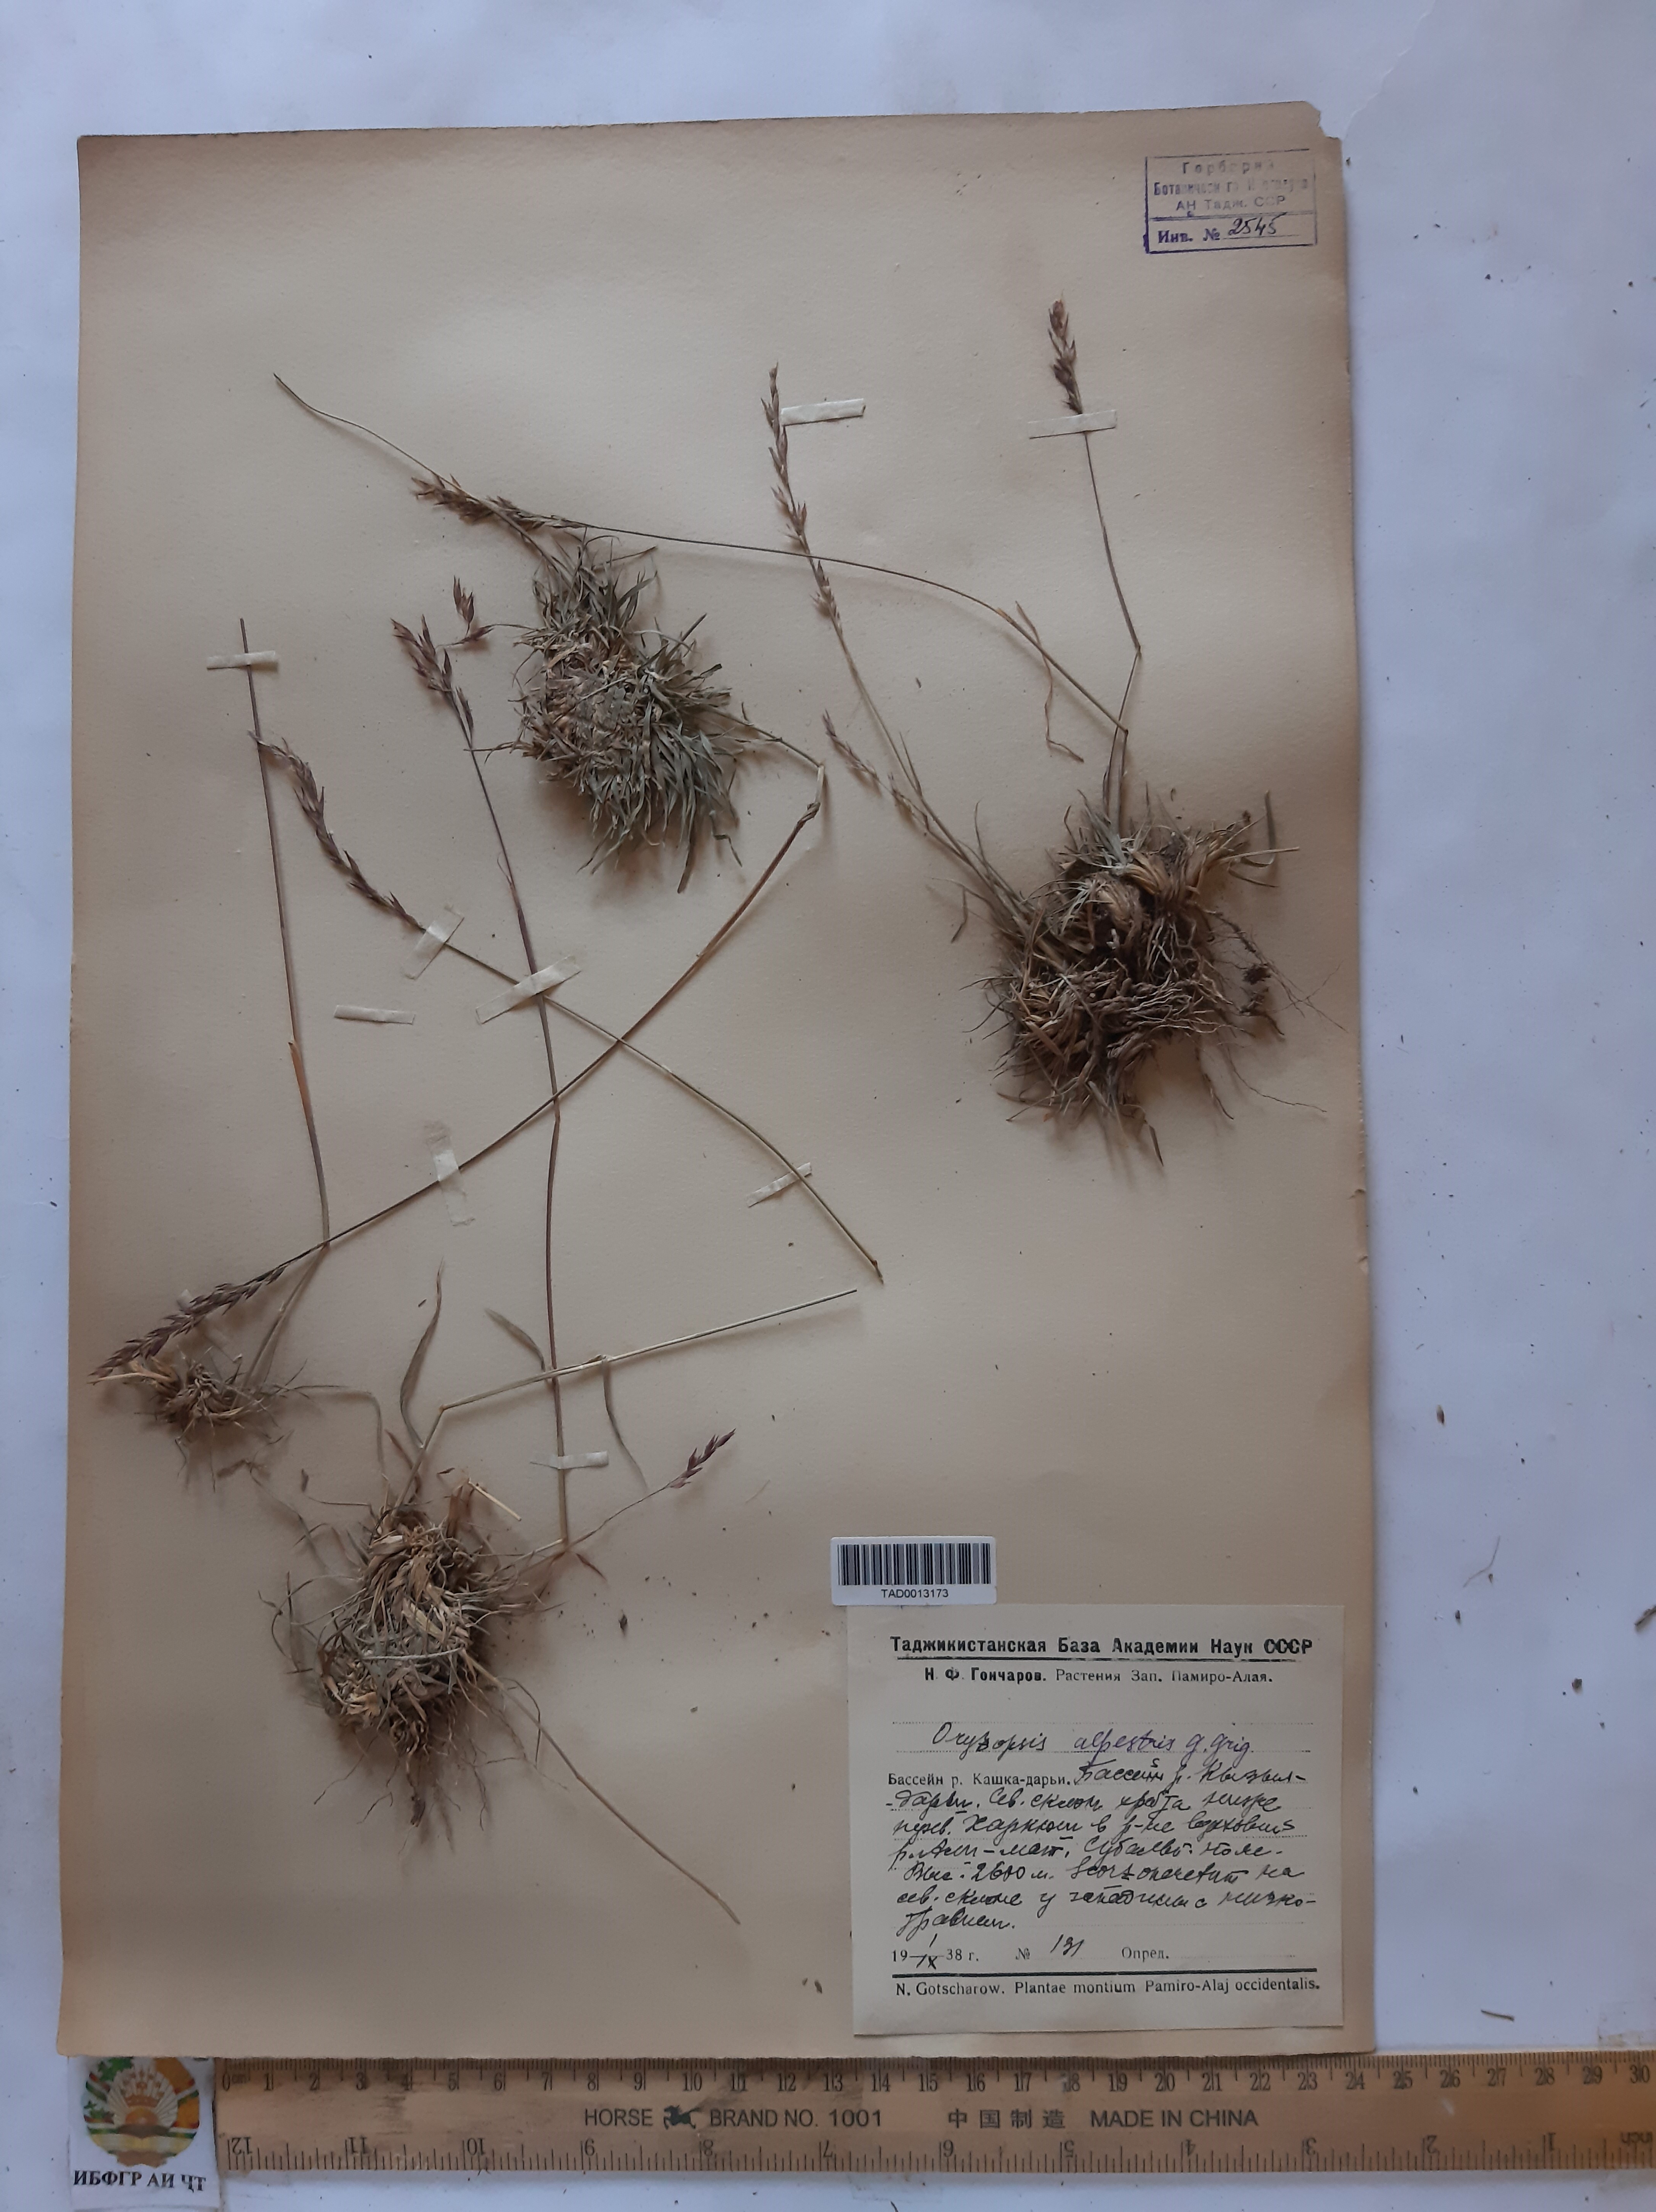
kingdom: Plantae
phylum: Tracheophyta
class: Liliopsida
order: Poales
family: Poaceae
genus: Piptatherum
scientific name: Piptatherum alpestre
